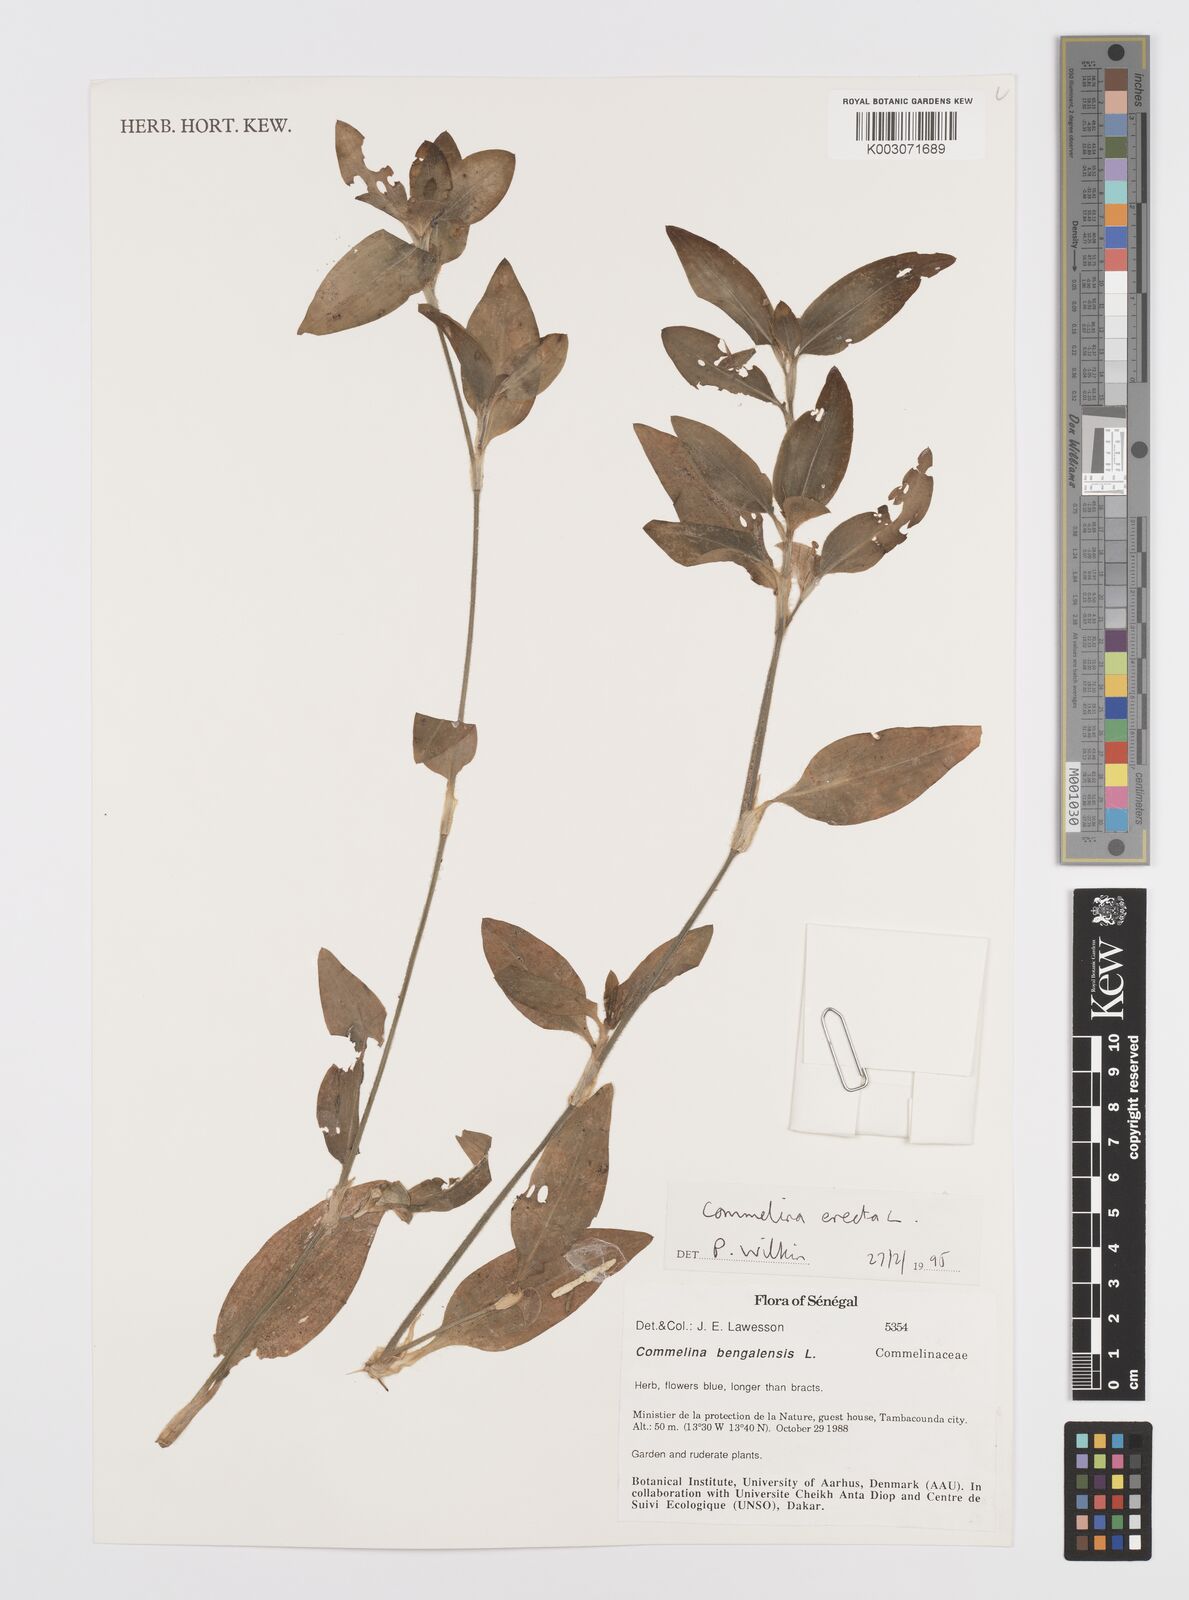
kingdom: Plantae
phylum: Tracheophyta
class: Liliopsida
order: Commelinales
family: Commelinaceae
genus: Commelina
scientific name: Commelina erecta
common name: Blousel blommetjie
